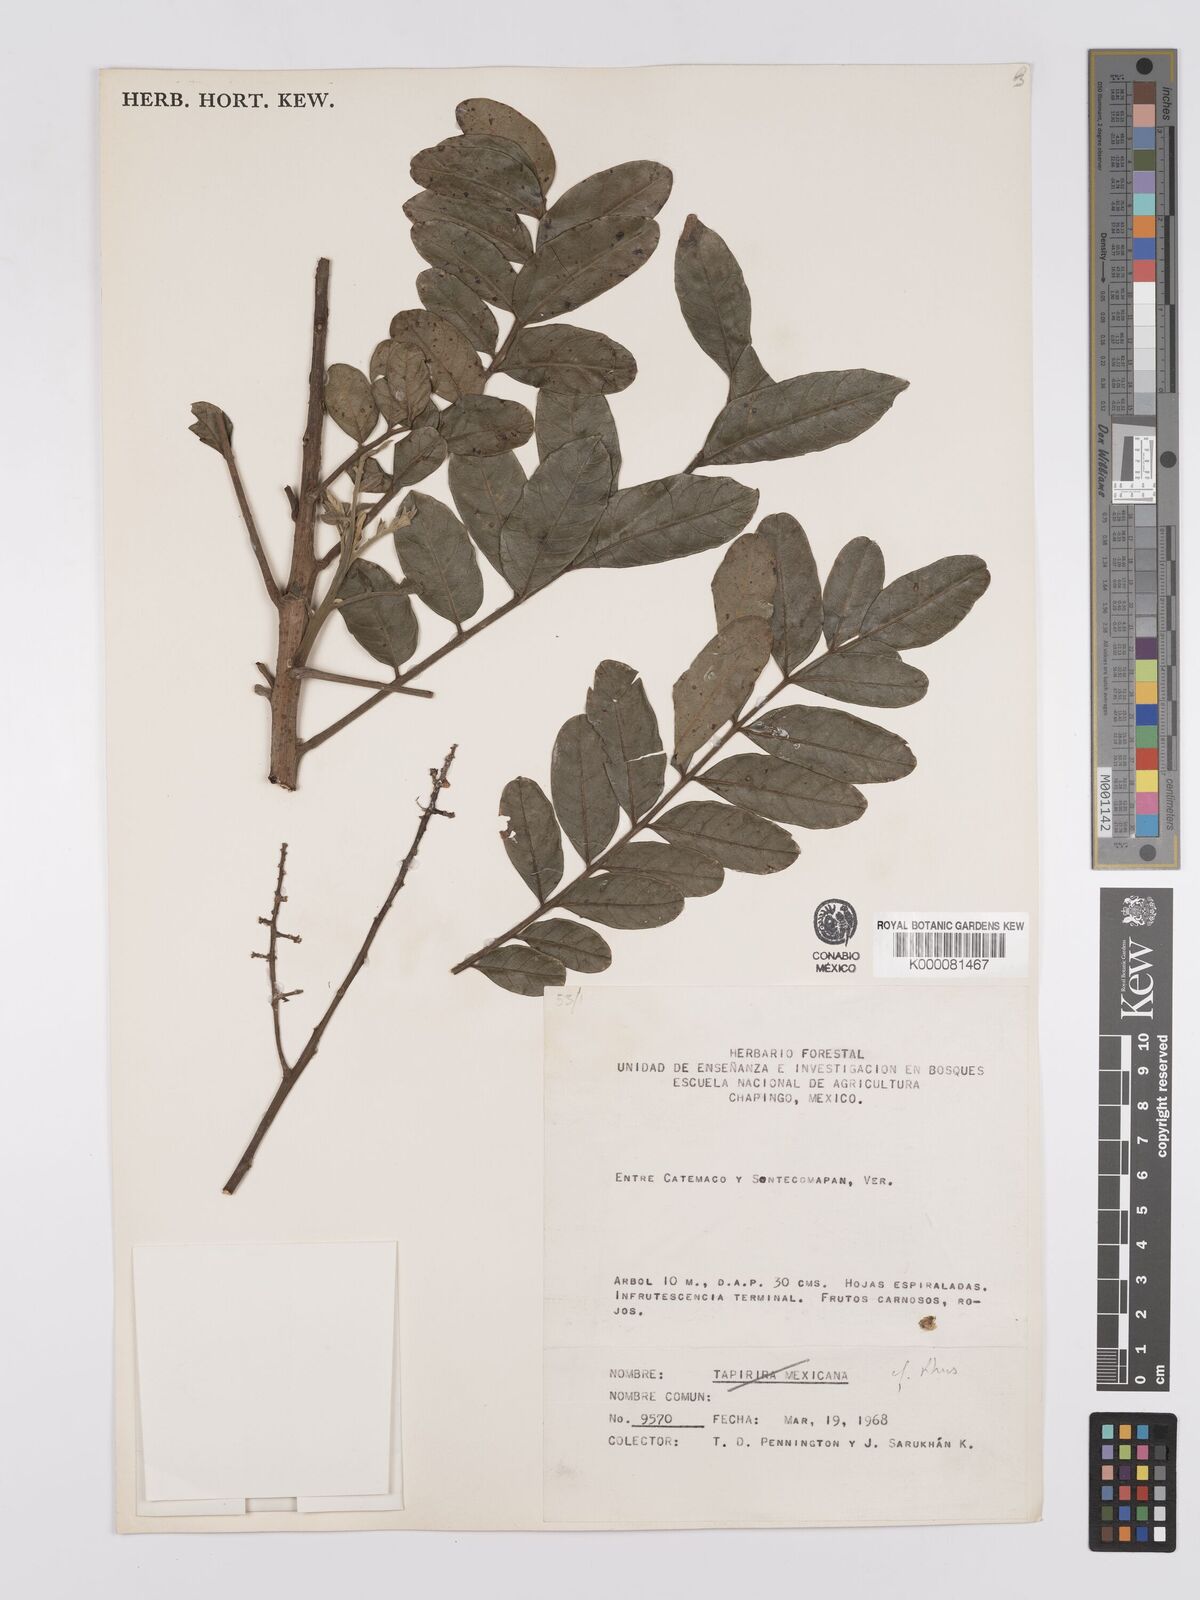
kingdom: Plantae
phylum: Tracheophyta
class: Magnoliopsida
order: Sapindales
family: Anacardiaceae
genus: Rhus
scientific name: Rhus
